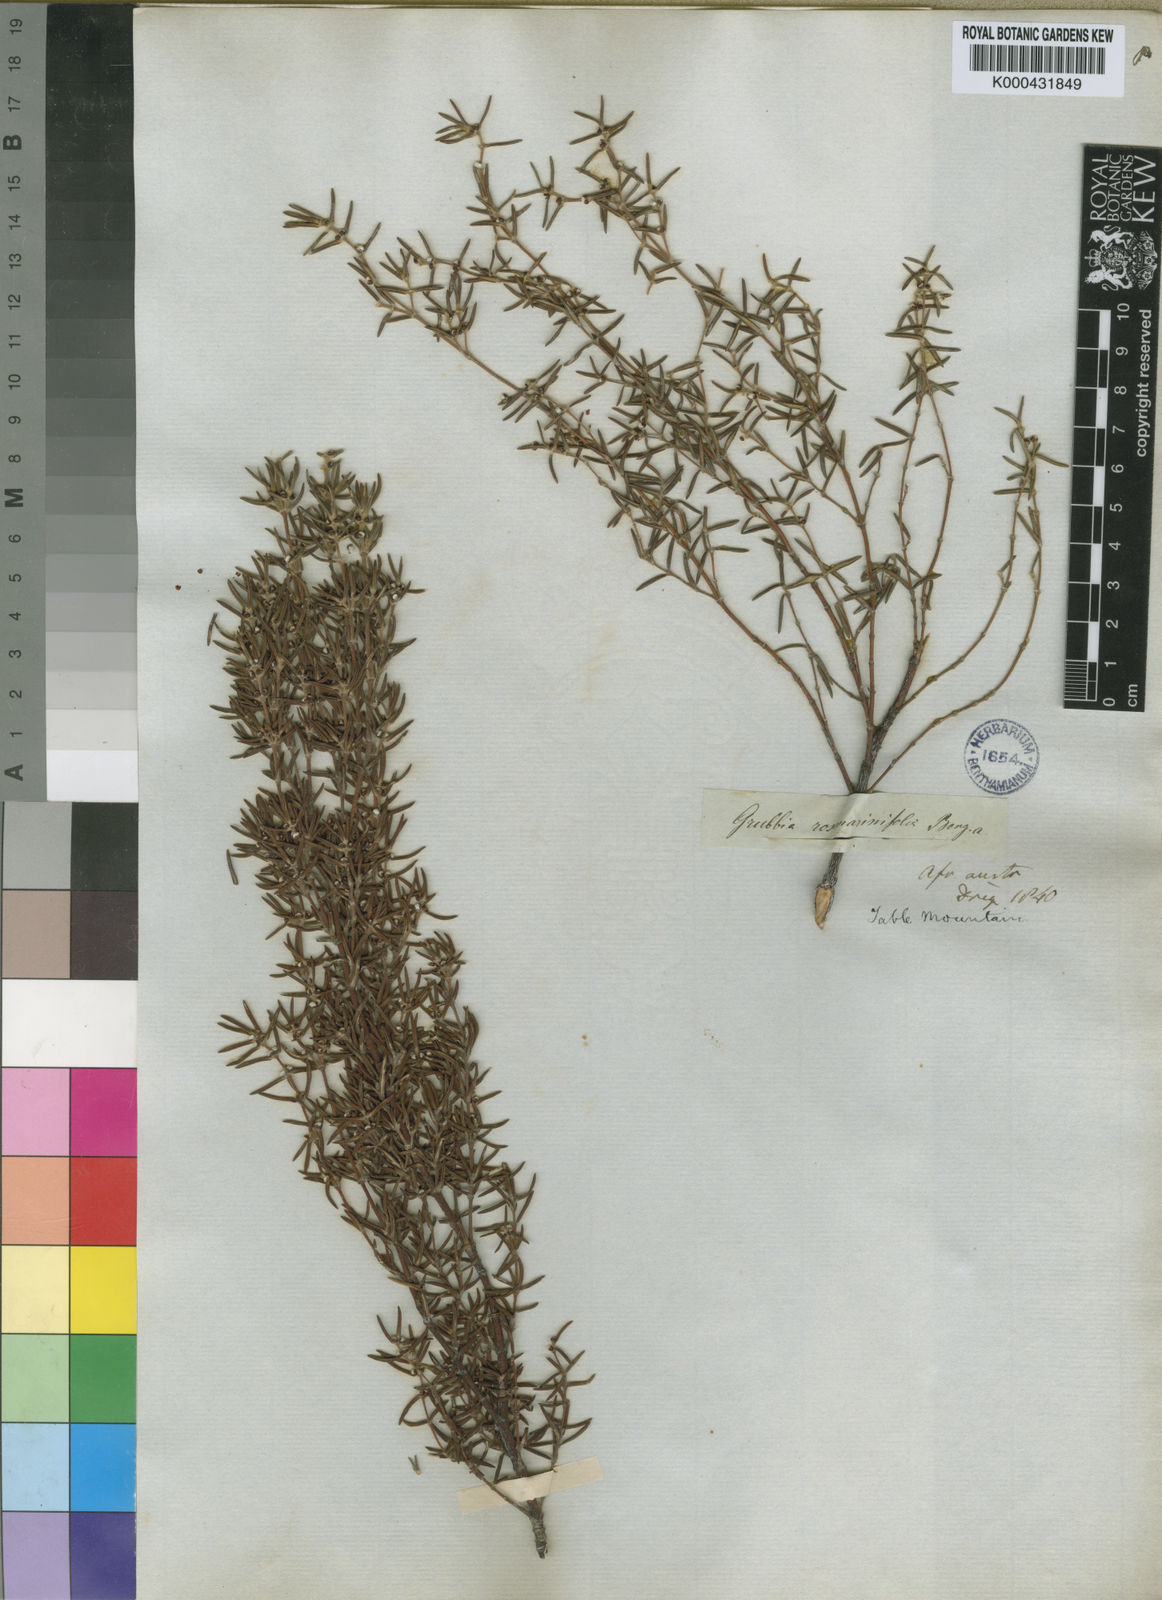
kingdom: Plantae
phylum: Tracheophyta
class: Magnoliopsida
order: Cornales
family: Grubbiaceae
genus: Grubbia
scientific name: Grubbia rosmarinifolia
